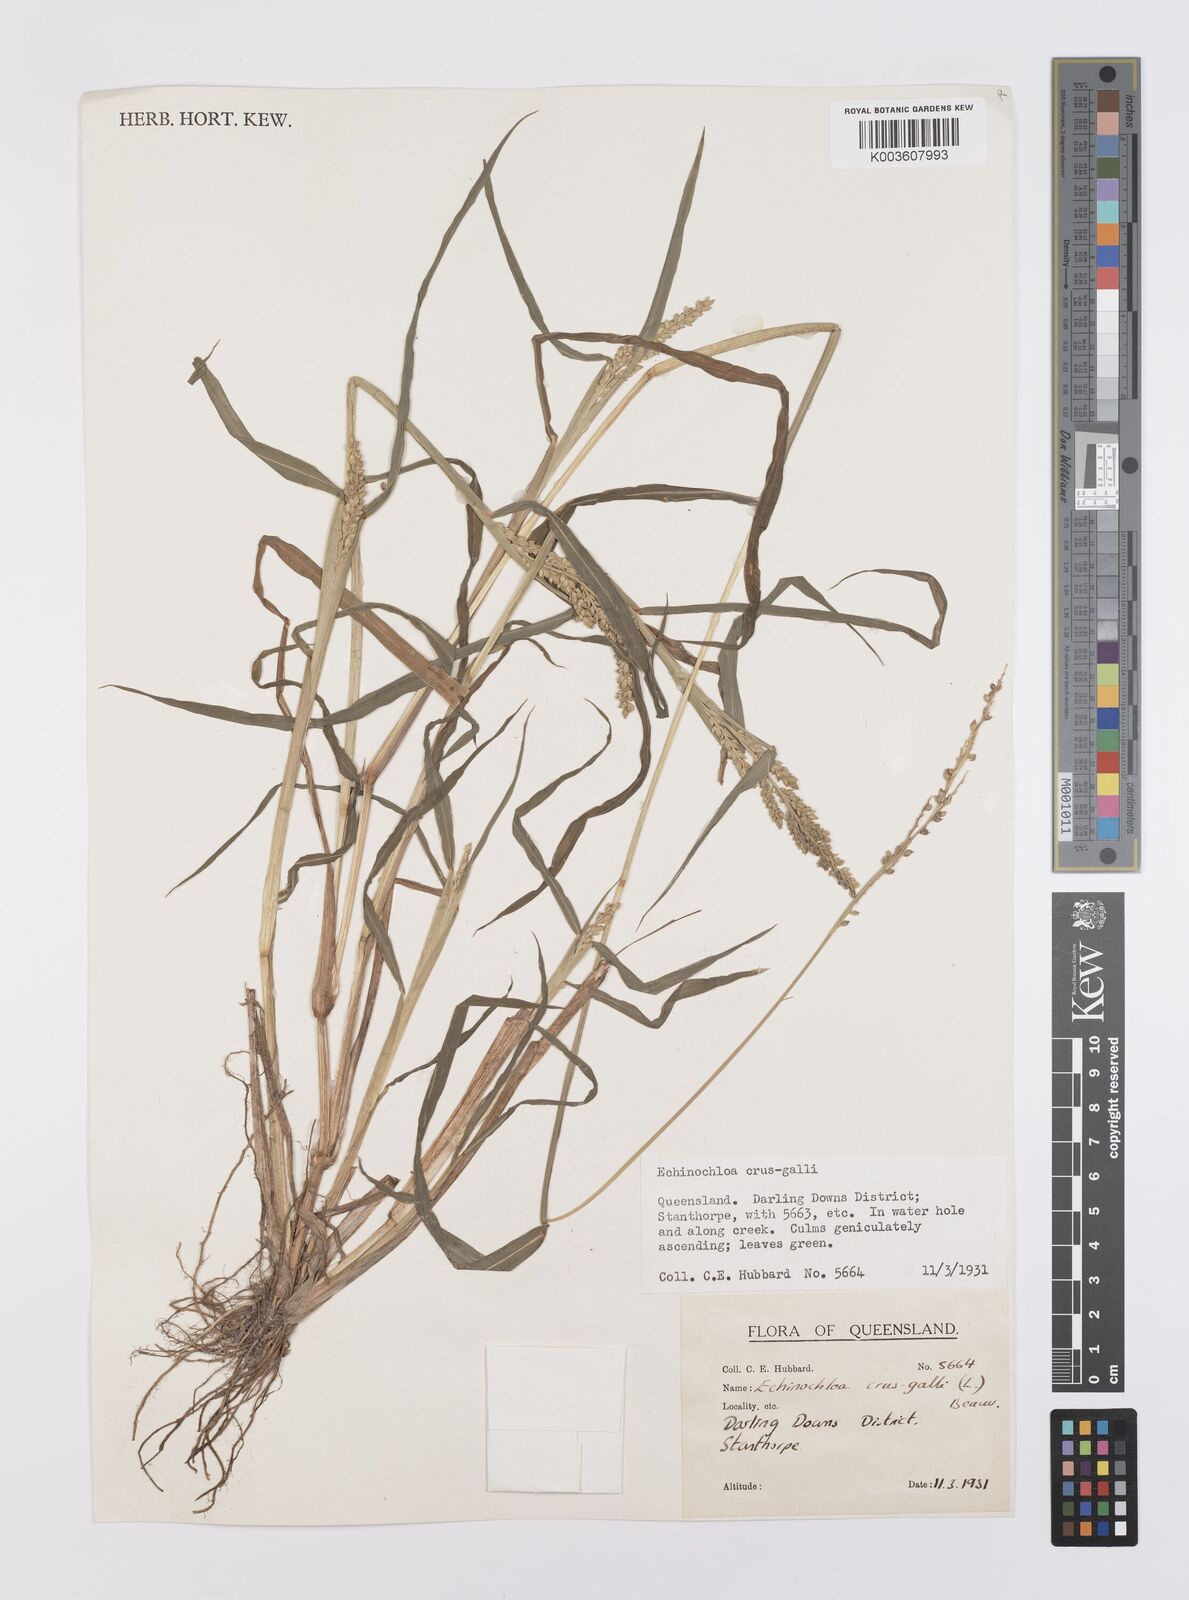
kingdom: Plantae
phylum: Tracheophyta
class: Liliopsida
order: Poales
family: Poaceae
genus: Echinochloa
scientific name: Echinochloa crus-galli
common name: Cockspur
